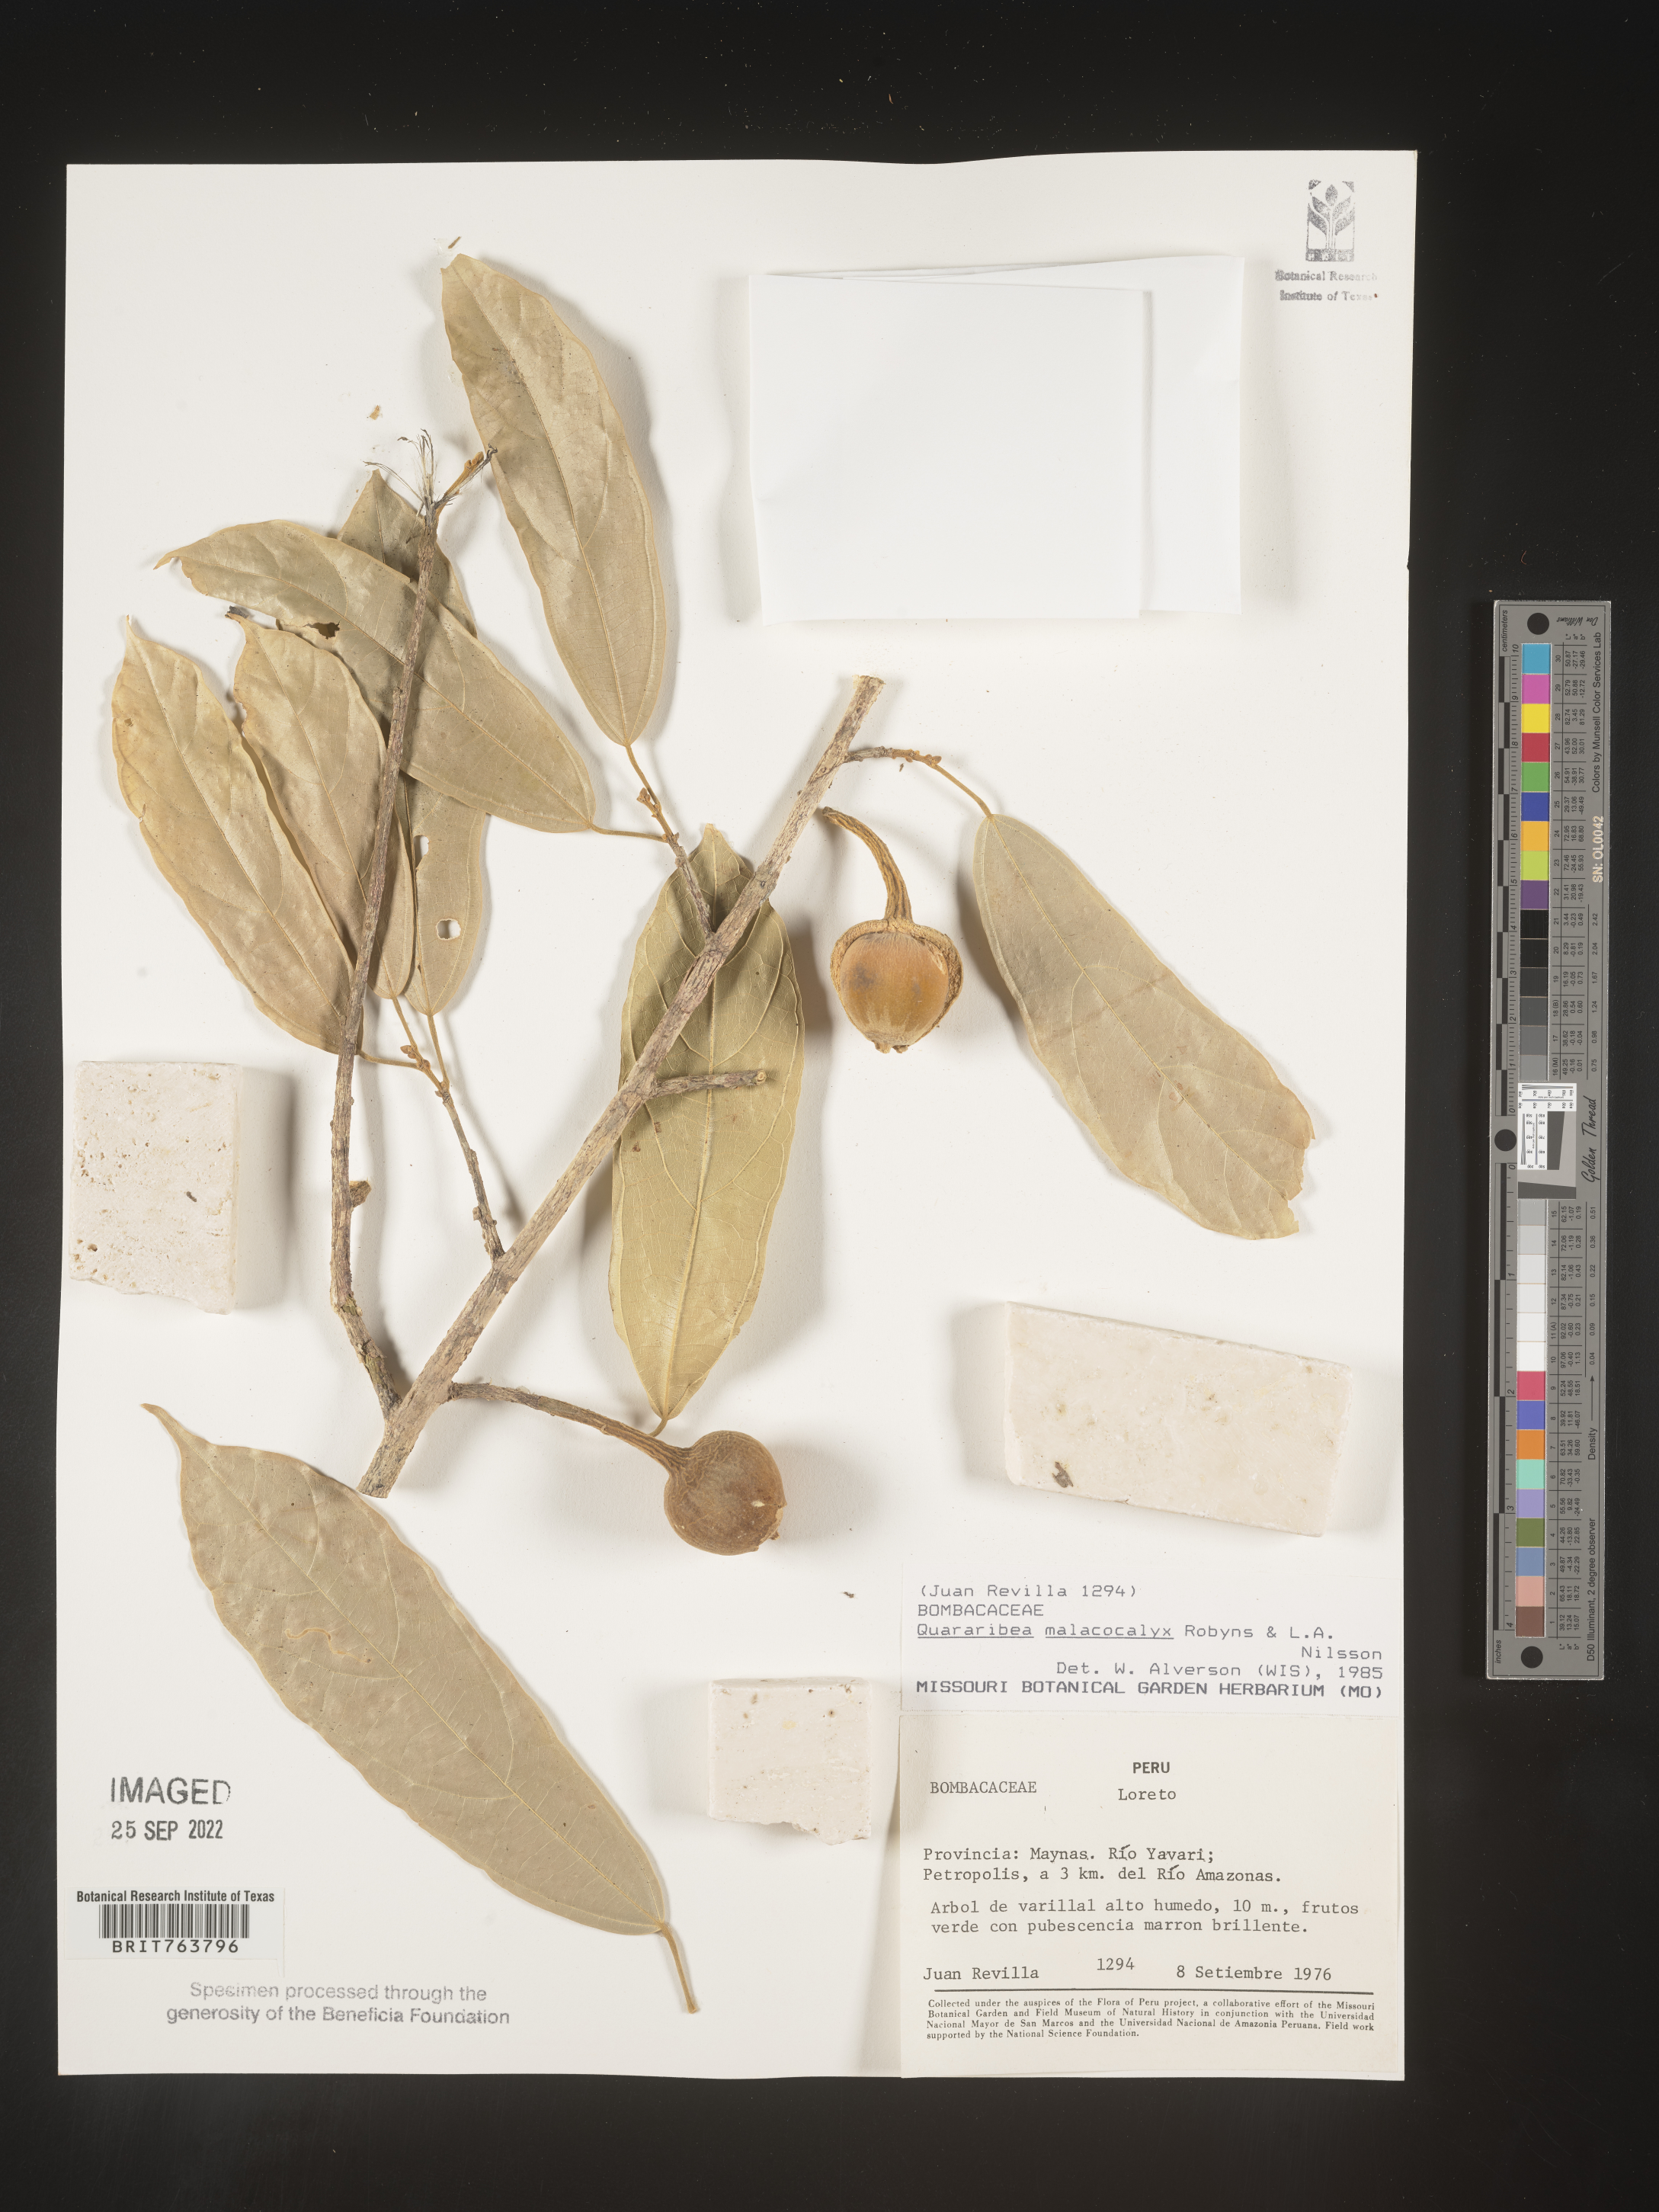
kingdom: Plantae
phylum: Tracheophyta
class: Magnoliopsida
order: Malvales
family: Malvaceae
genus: Quararibea
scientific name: Quararibea
